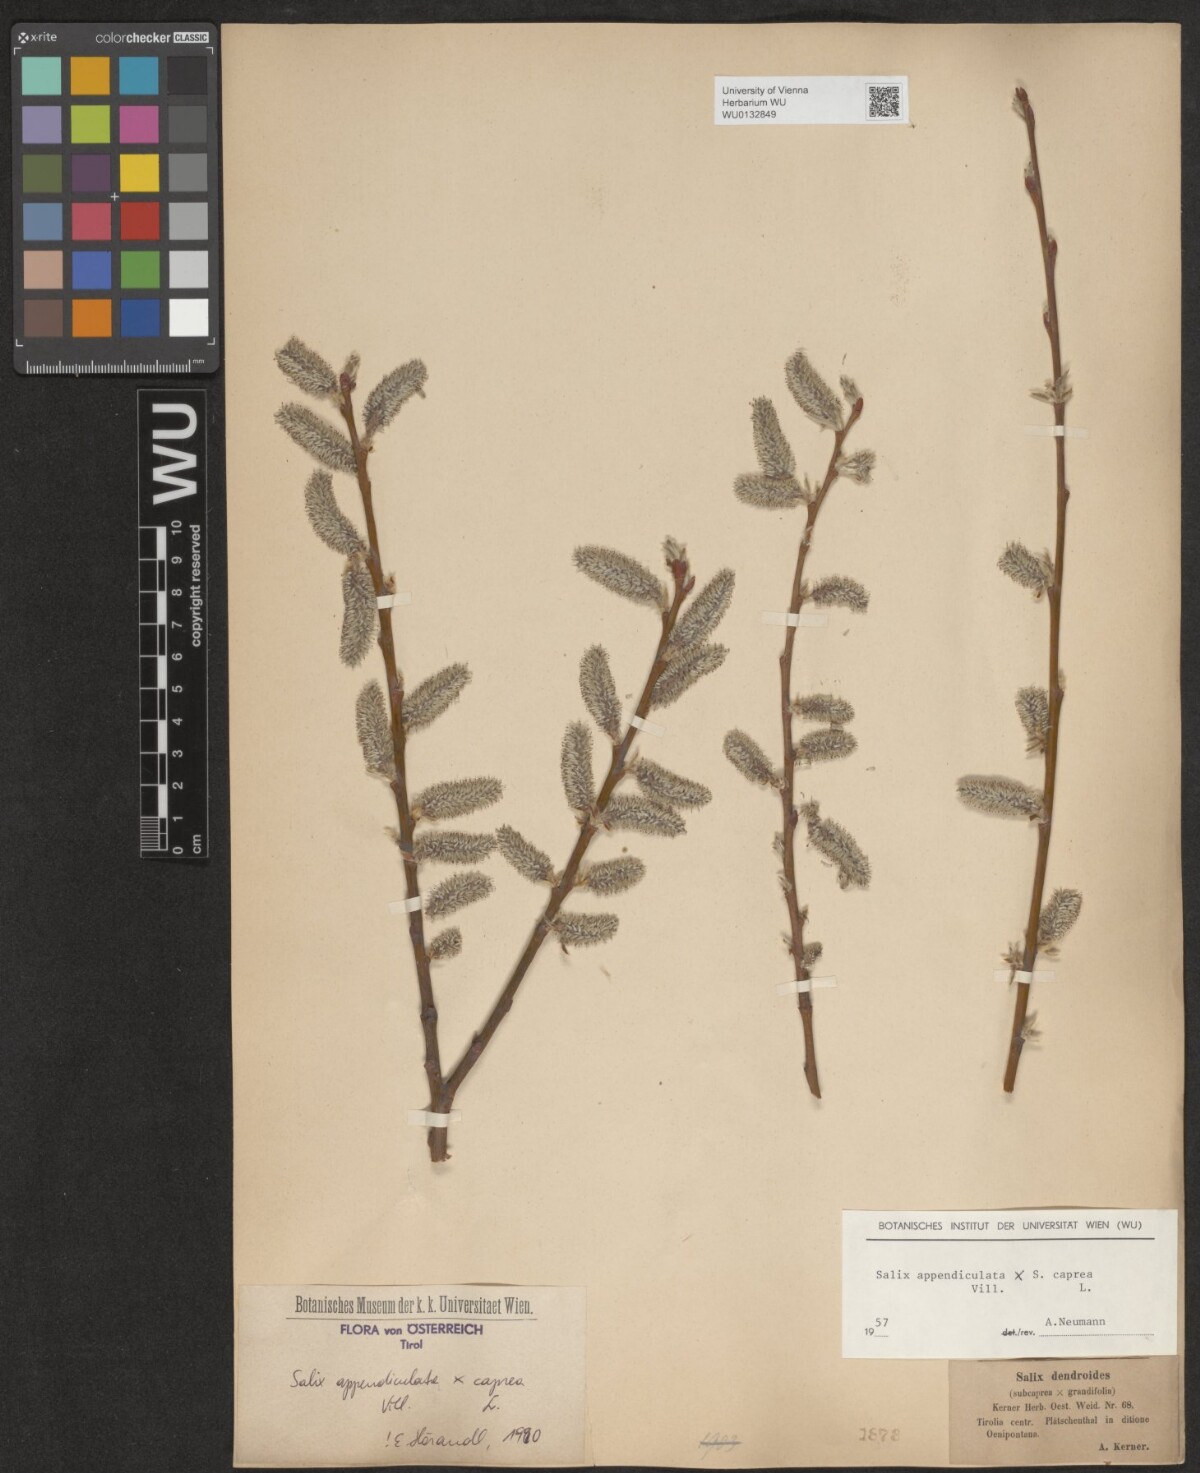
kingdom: Plantae
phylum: Tracheophyta
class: Magnoliopsida
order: Malpighiales
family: Salicaceae
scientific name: Salicaceae
